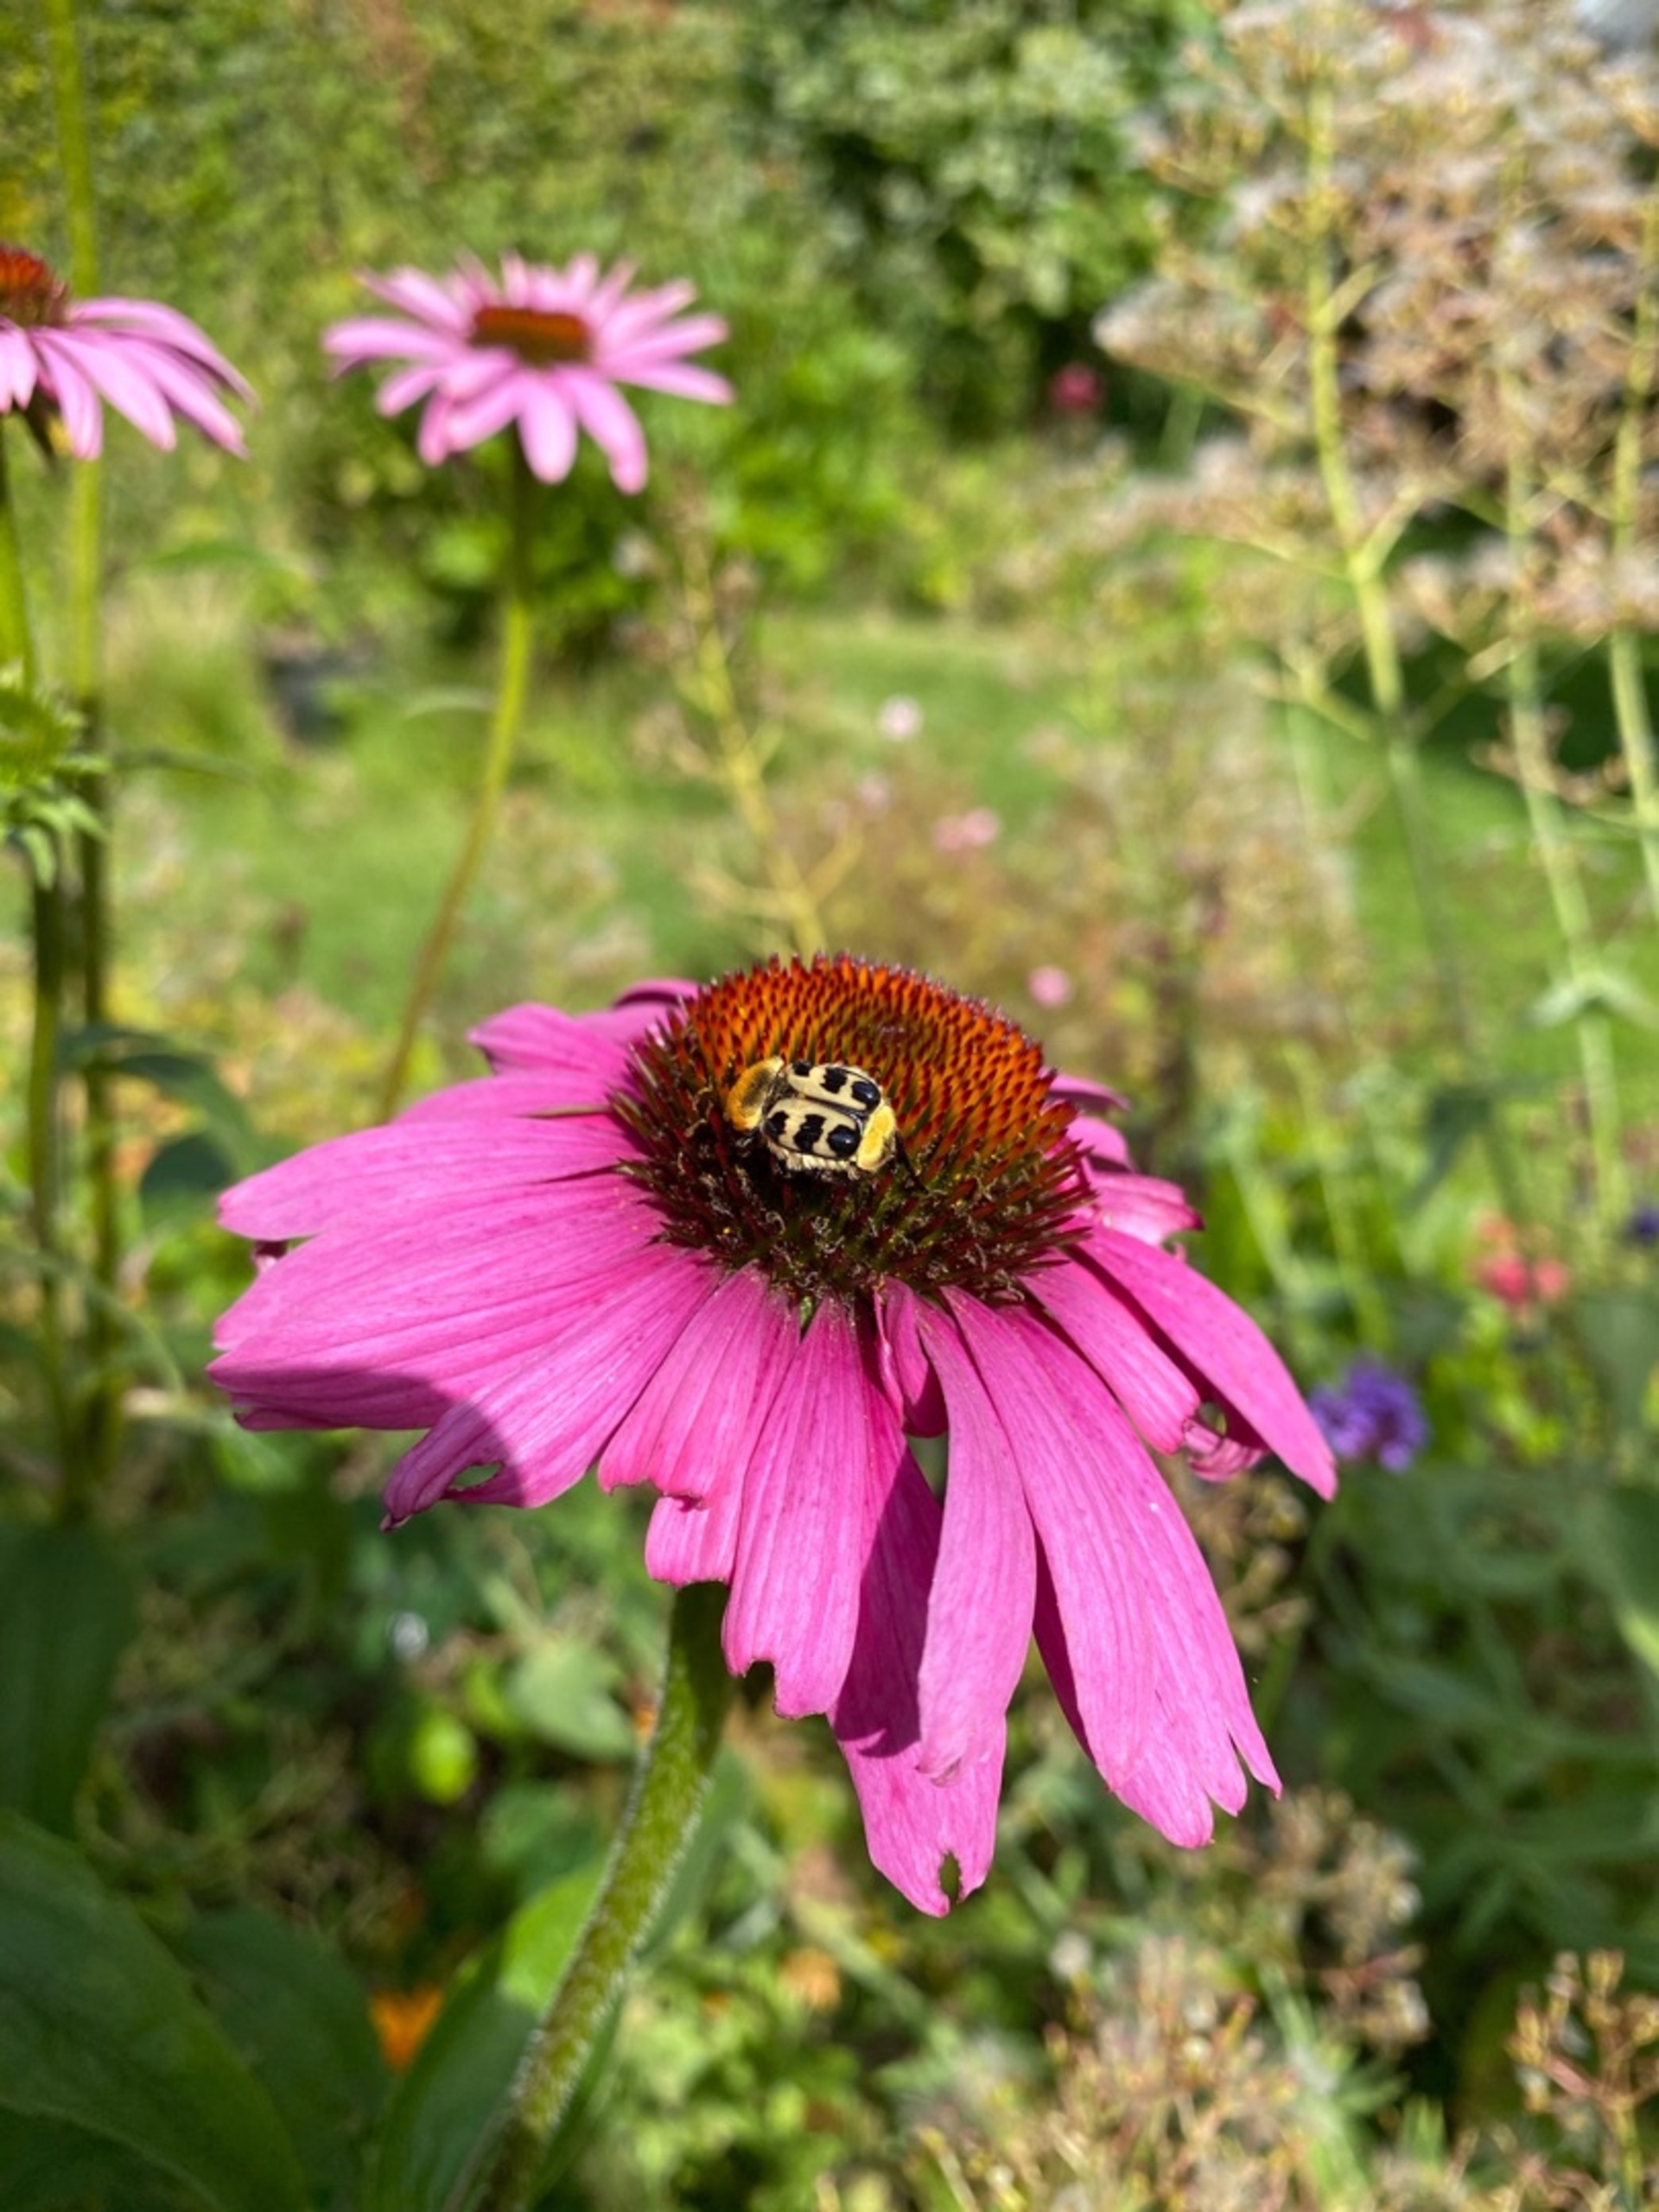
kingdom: Animalia
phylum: Arthropoda
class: Insecta
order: Coleoptera
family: Scarabaeidae
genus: Trichius
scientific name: Trichius gallicus
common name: Lille humlebille
